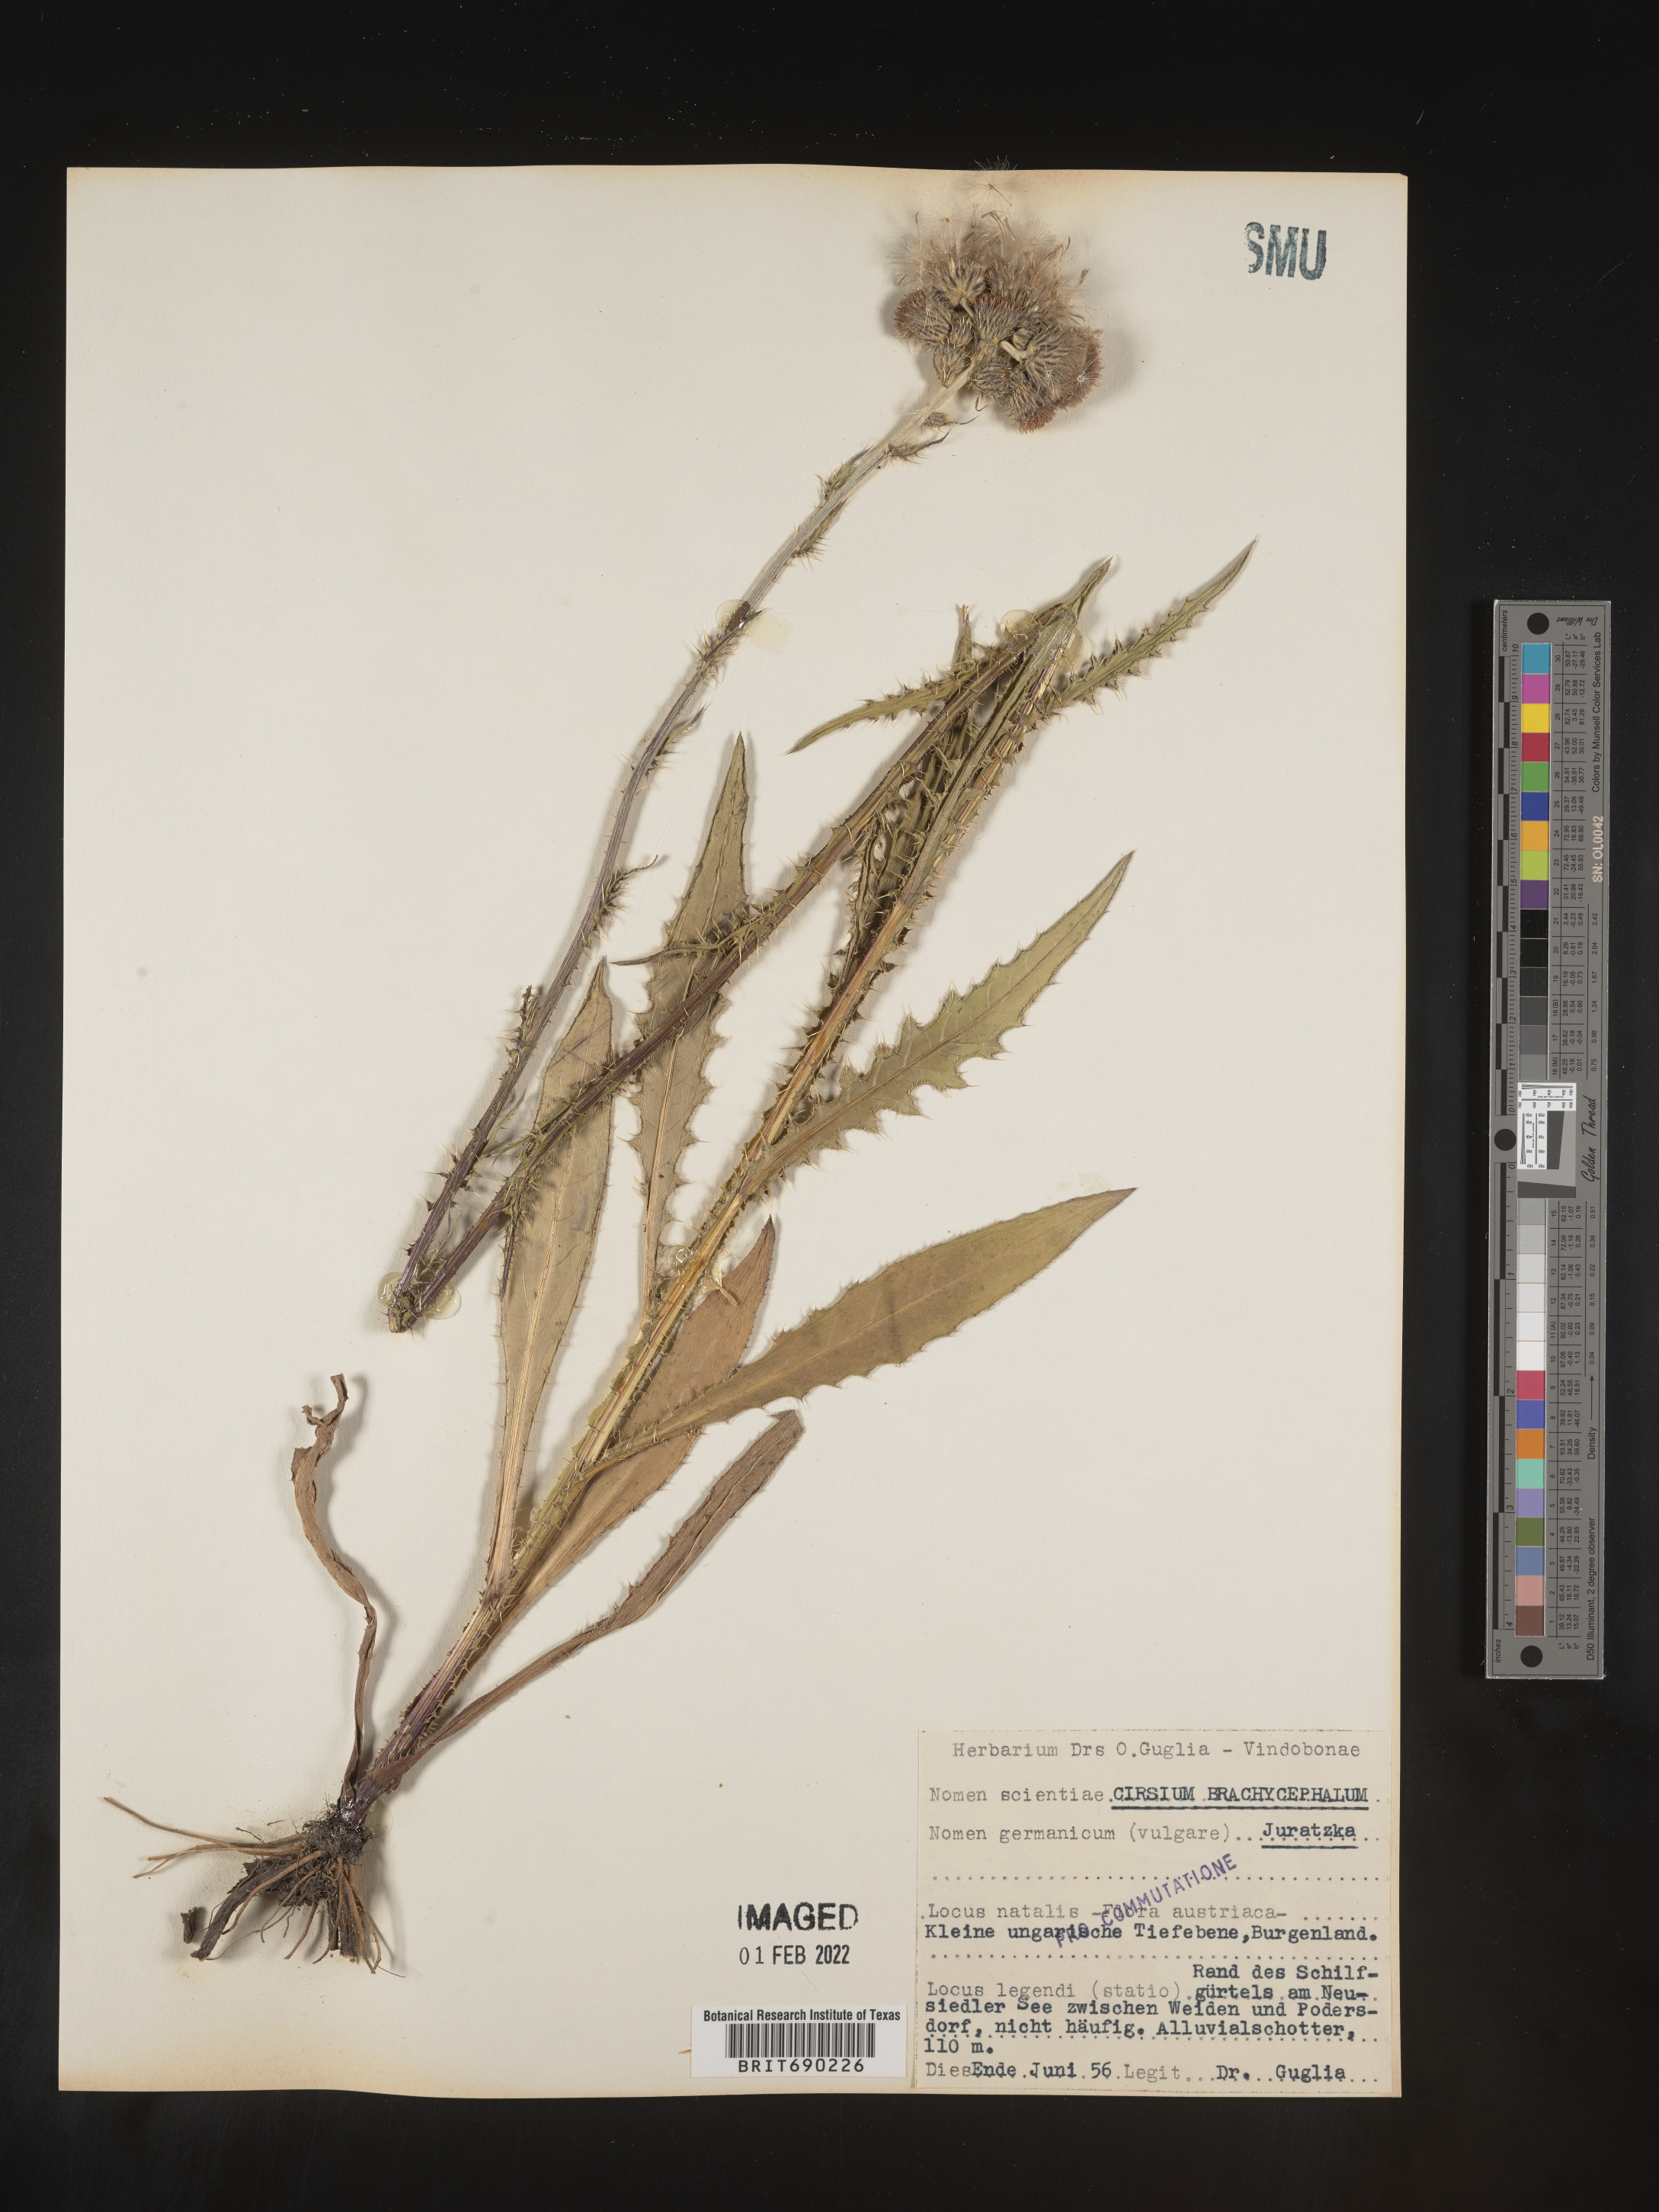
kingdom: Plantae
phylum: Tracheophyta
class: Magnoliopsida
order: Asterales
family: Asteraceae
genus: Cirsium
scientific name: Cirsium
